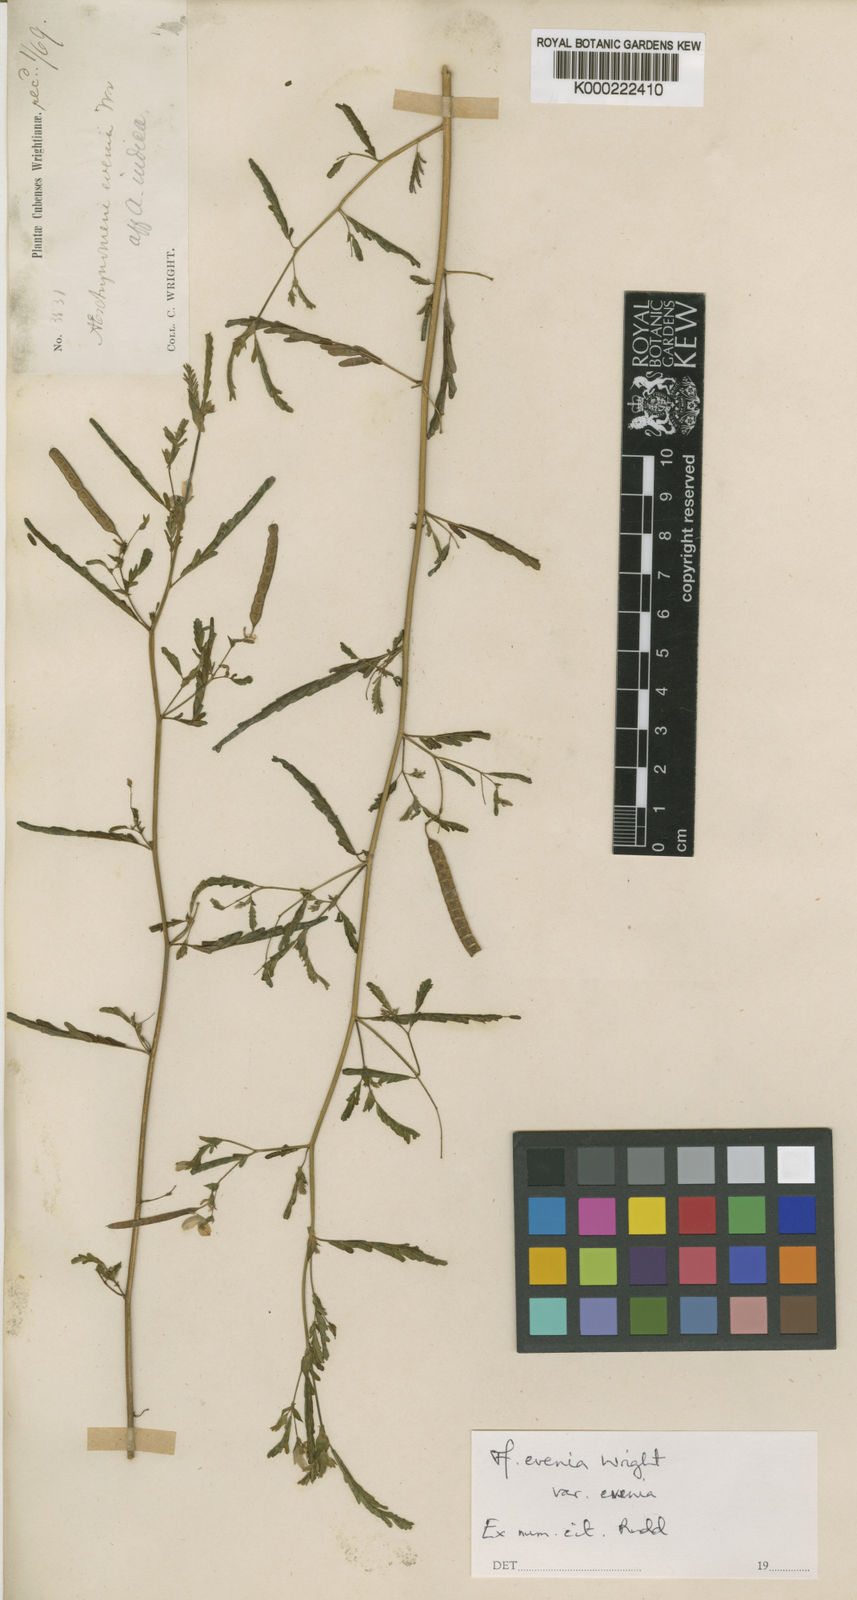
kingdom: Plantae
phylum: Tracheophyta
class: Magnoliopsida
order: Fabales
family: Fabaceae
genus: Aeschynomene
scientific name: Aeschynomene
